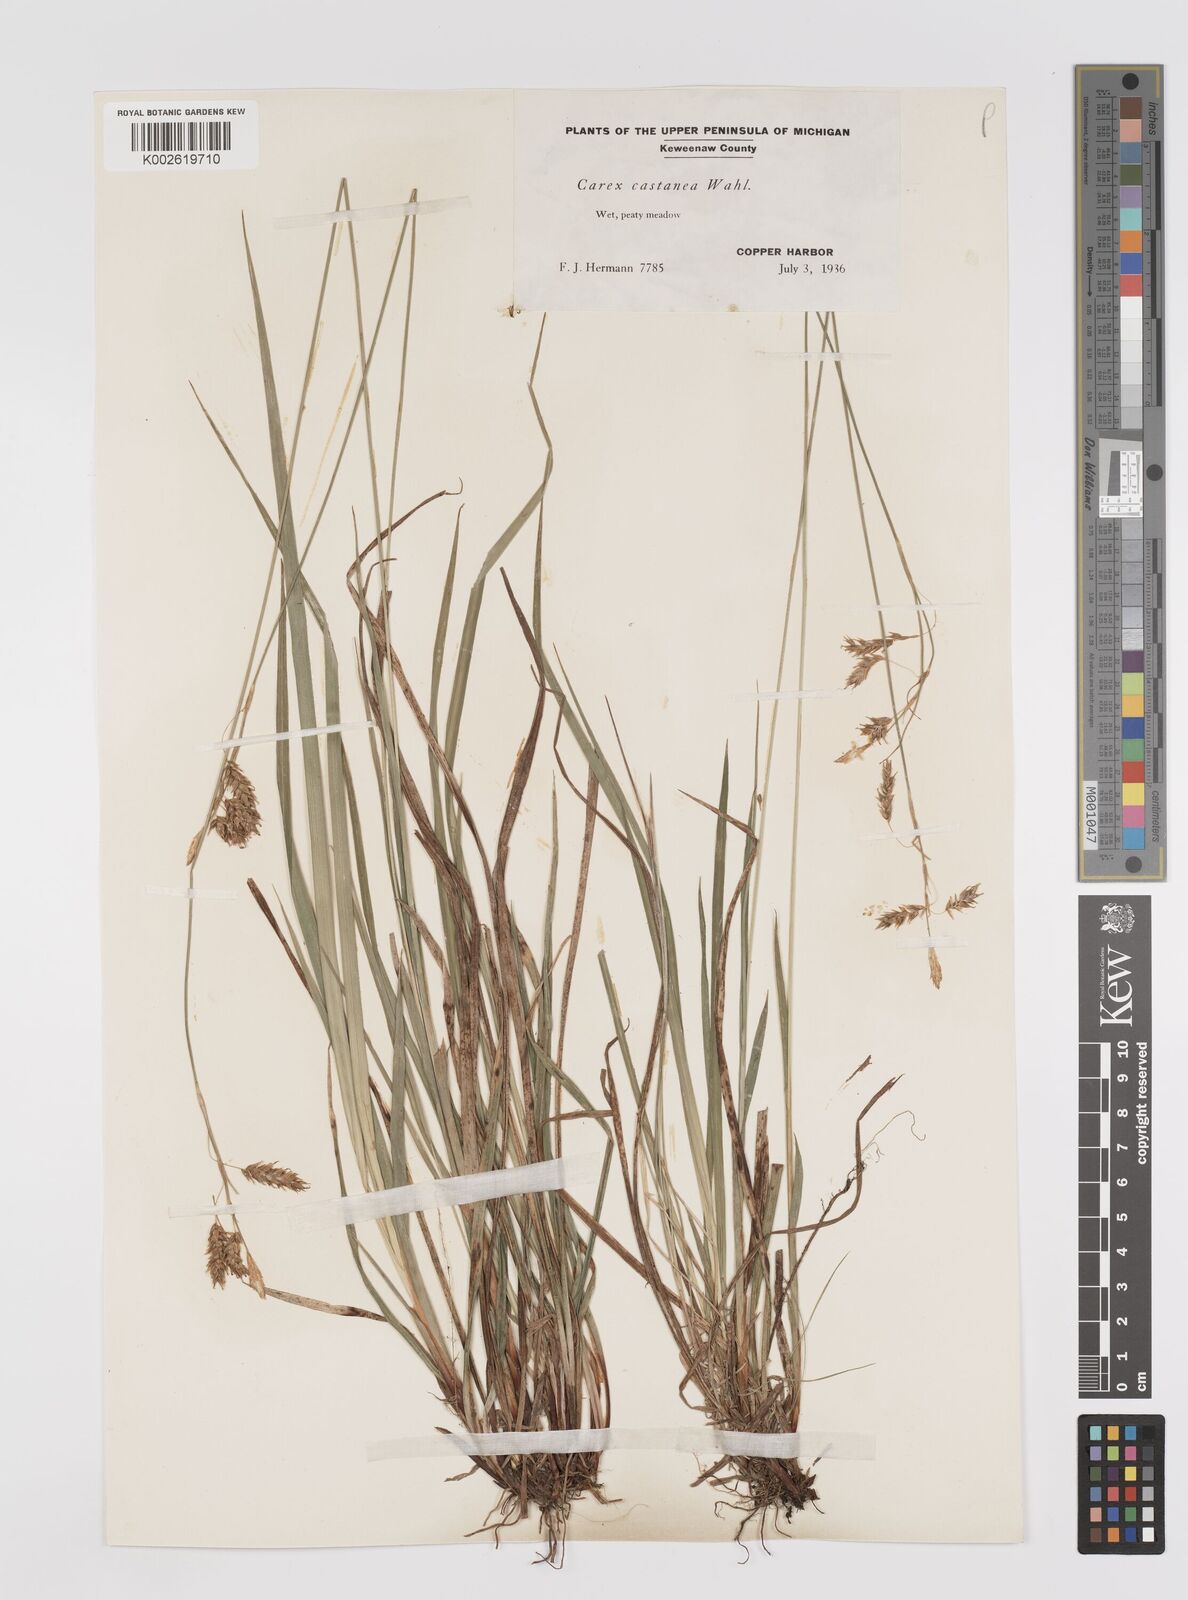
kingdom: Plantae
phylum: Tracheophyta
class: Liliopsida
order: Poales
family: Cyperaceae
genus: Carex
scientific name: Carex castanea
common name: Chestnut sedge
